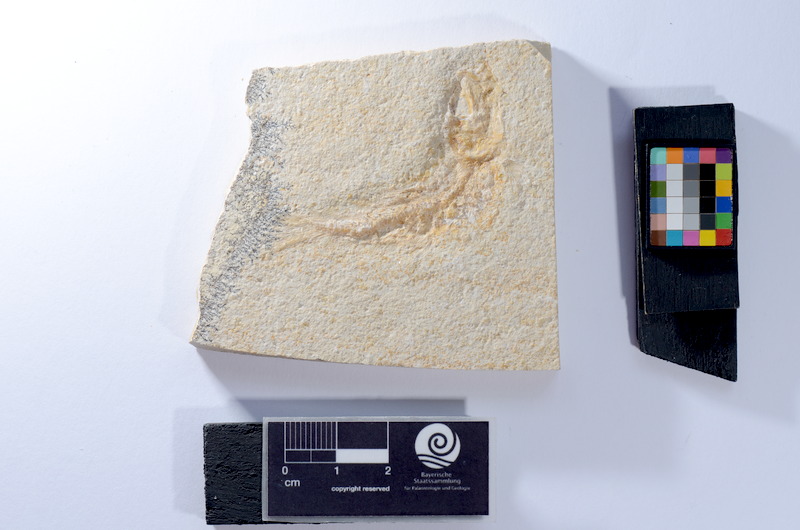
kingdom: Animalia
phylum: Chordata
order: Salmoniformes
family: Orthogonikleithridae
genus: Leptolepides
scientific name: Leptolepides
